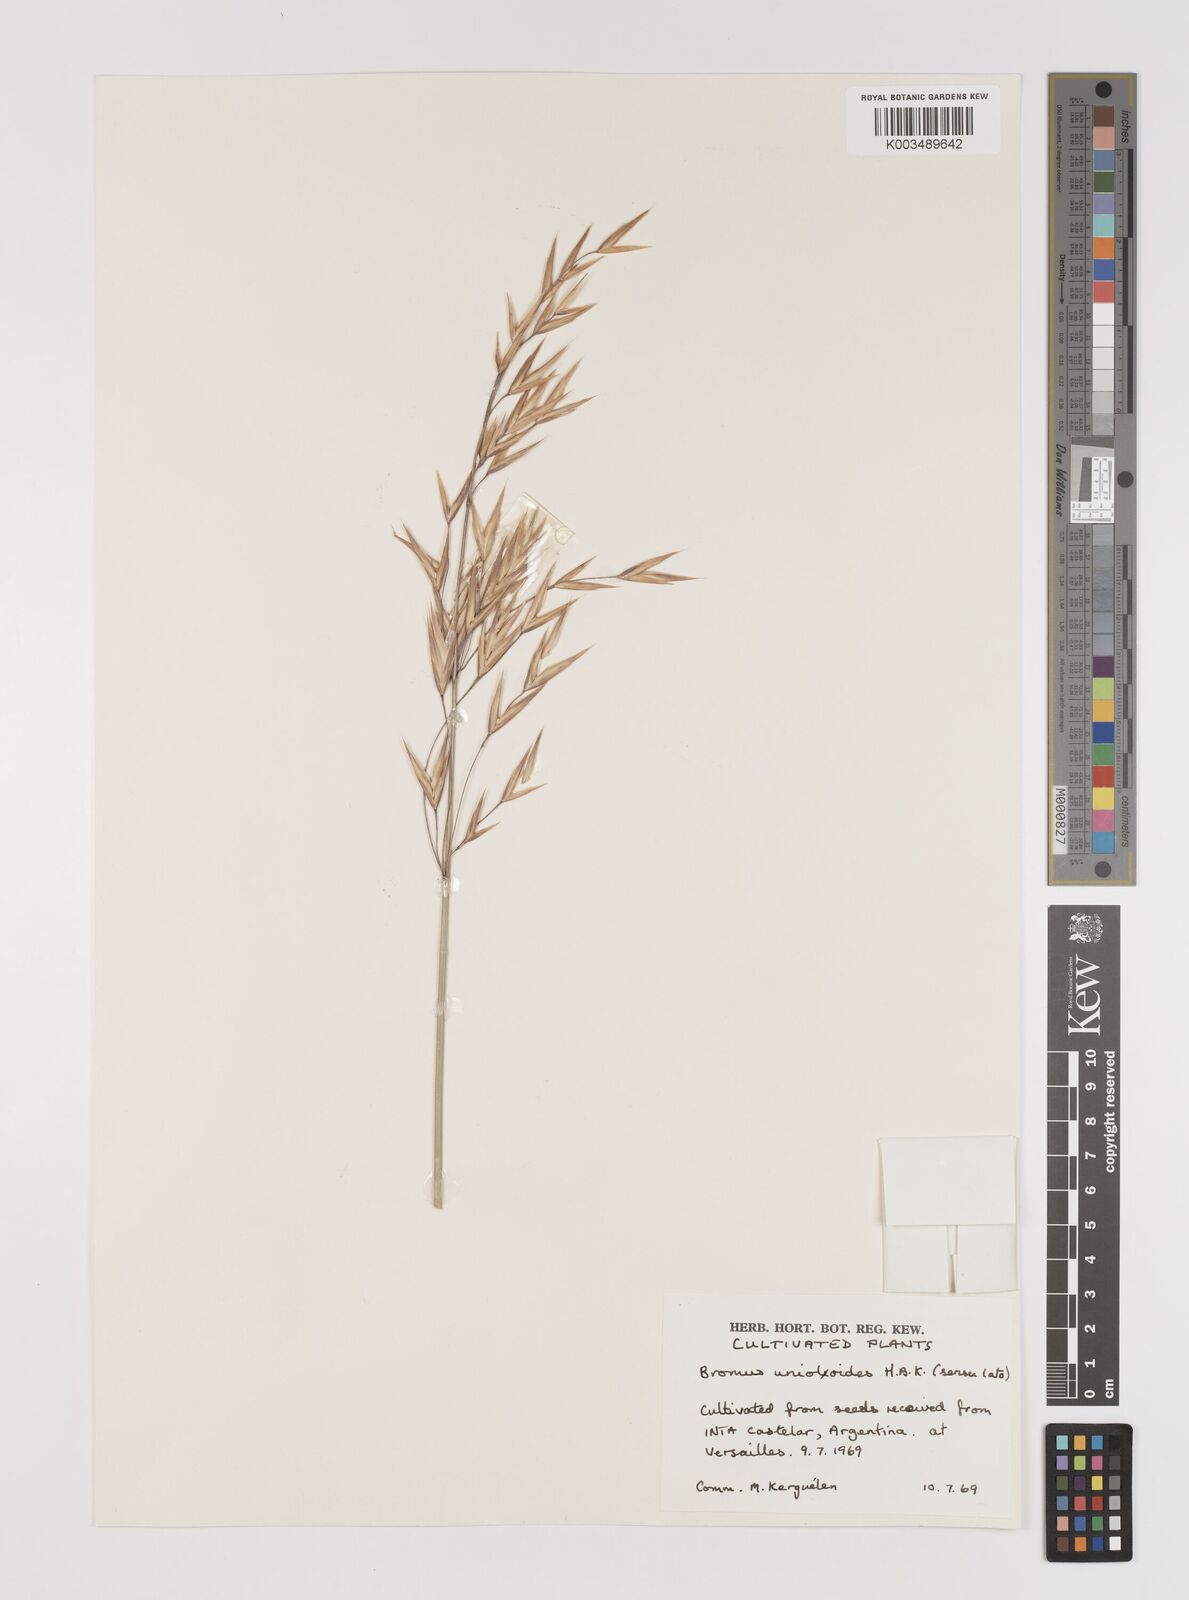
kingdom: Plantae
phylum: Tracheophyta
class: Liliopsida
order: Poales
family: Poaceae
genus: Bromus
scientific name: Bromus catharticus
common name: Rescuegrass
